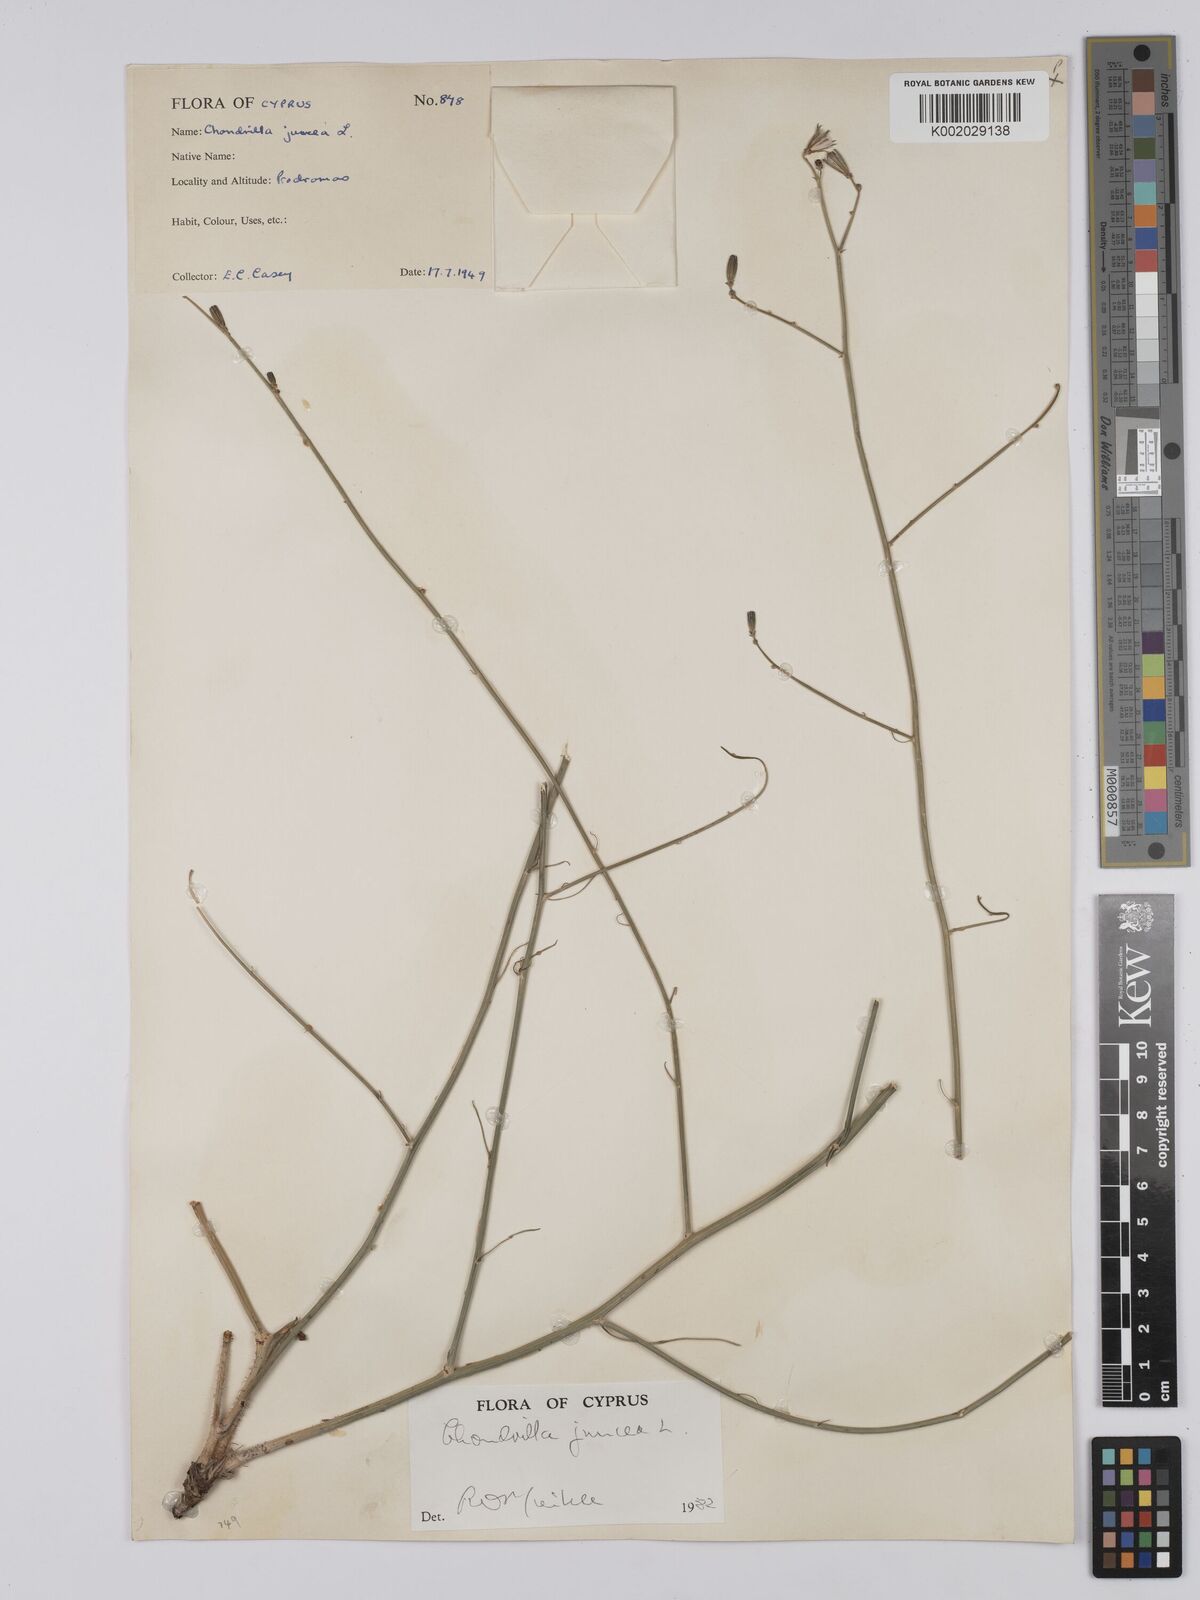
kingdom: Plantae
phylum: Tracheophyta
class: Magnoliopsida
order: Asterales
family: Asteraceae
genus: Chondrilla
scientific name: Chondrilla juncea
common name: Skeleton weed
